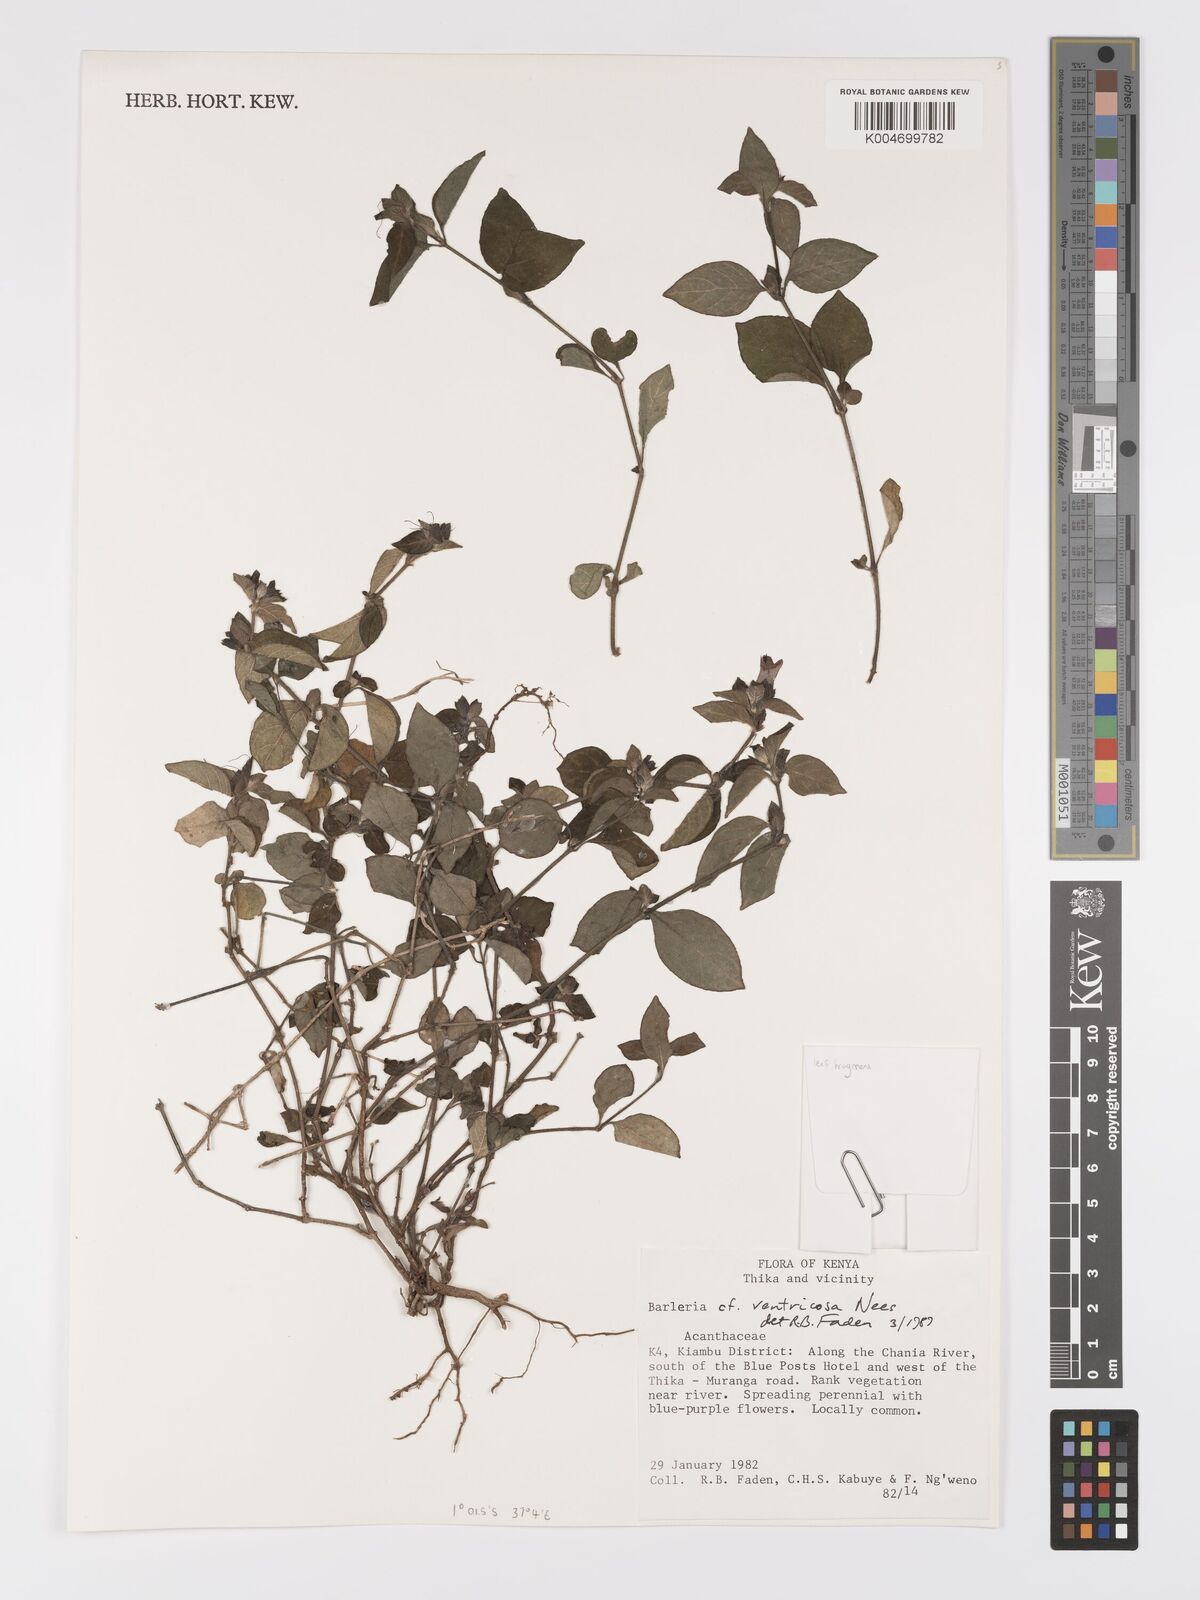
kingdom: Plantae
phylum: Tracheophyta
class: Magnoliopsida
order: Lamiales
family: Acanthaceae
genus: Barleria
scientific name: Barleria ventricosa
